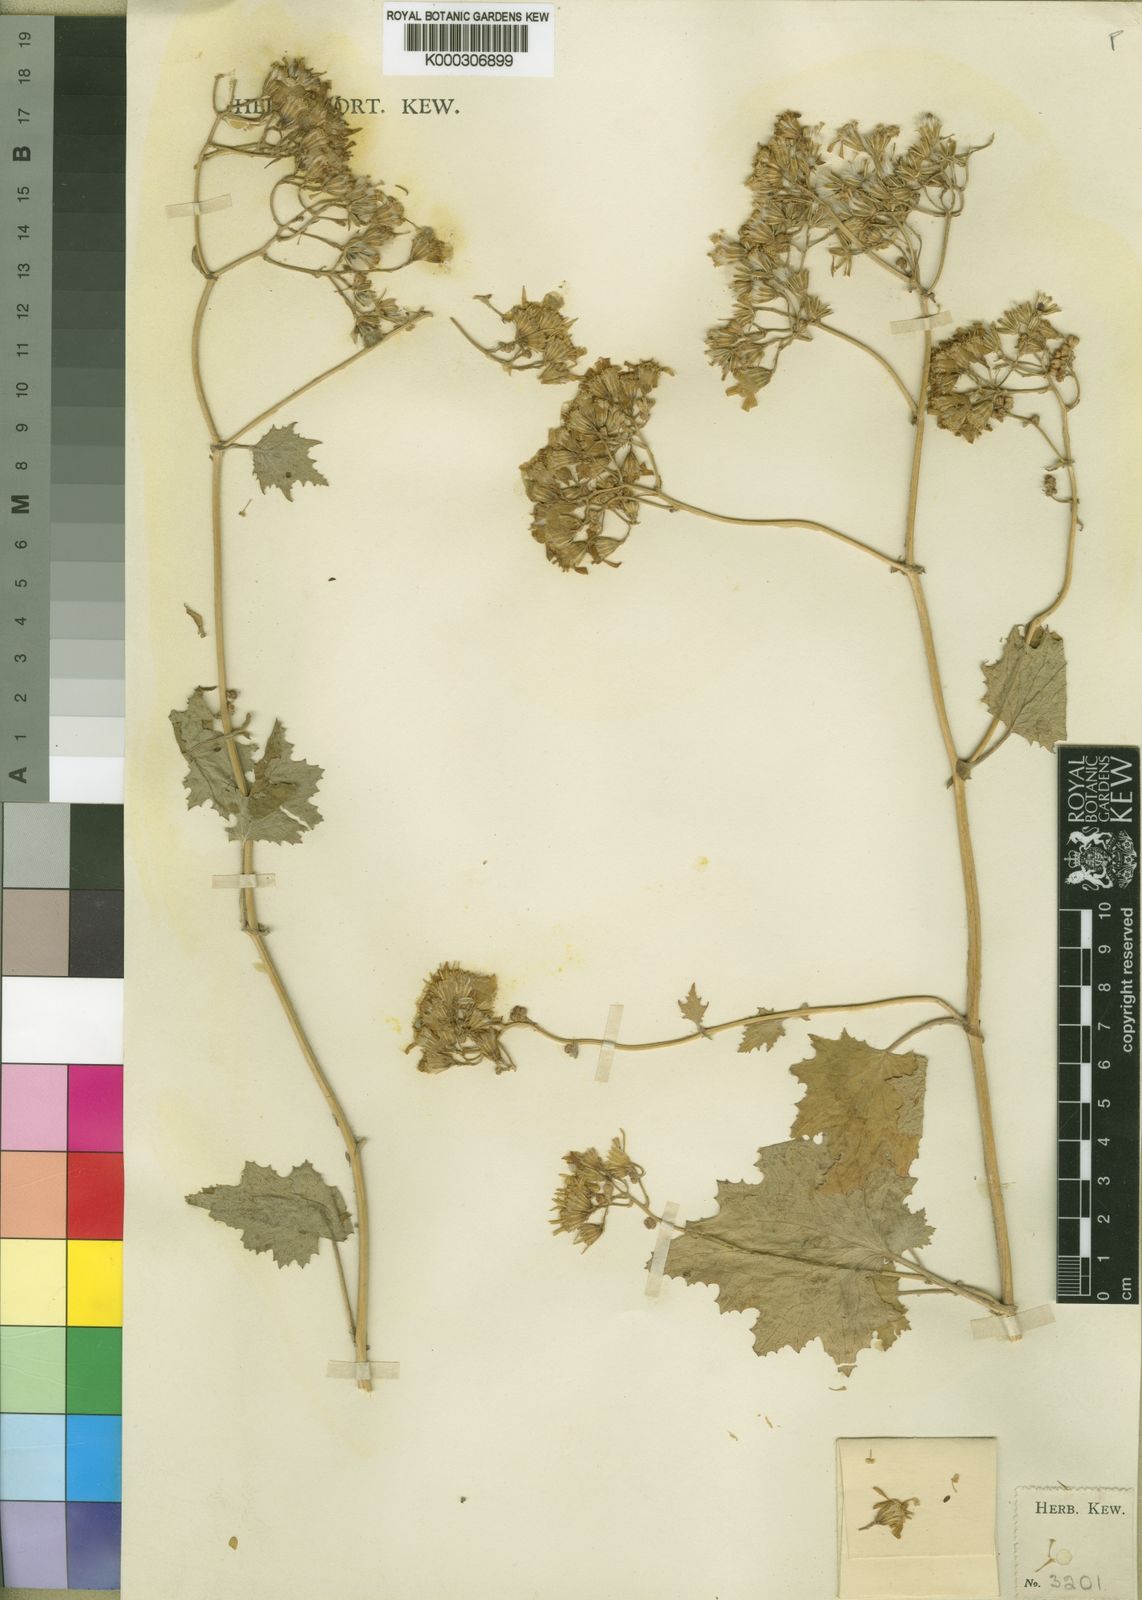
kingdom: Plantae
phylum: Tracheophyta
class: Magnoliopsida
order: Asterales
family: Asteraceae
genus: Cineraria
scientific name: Cineraria deltoidea
